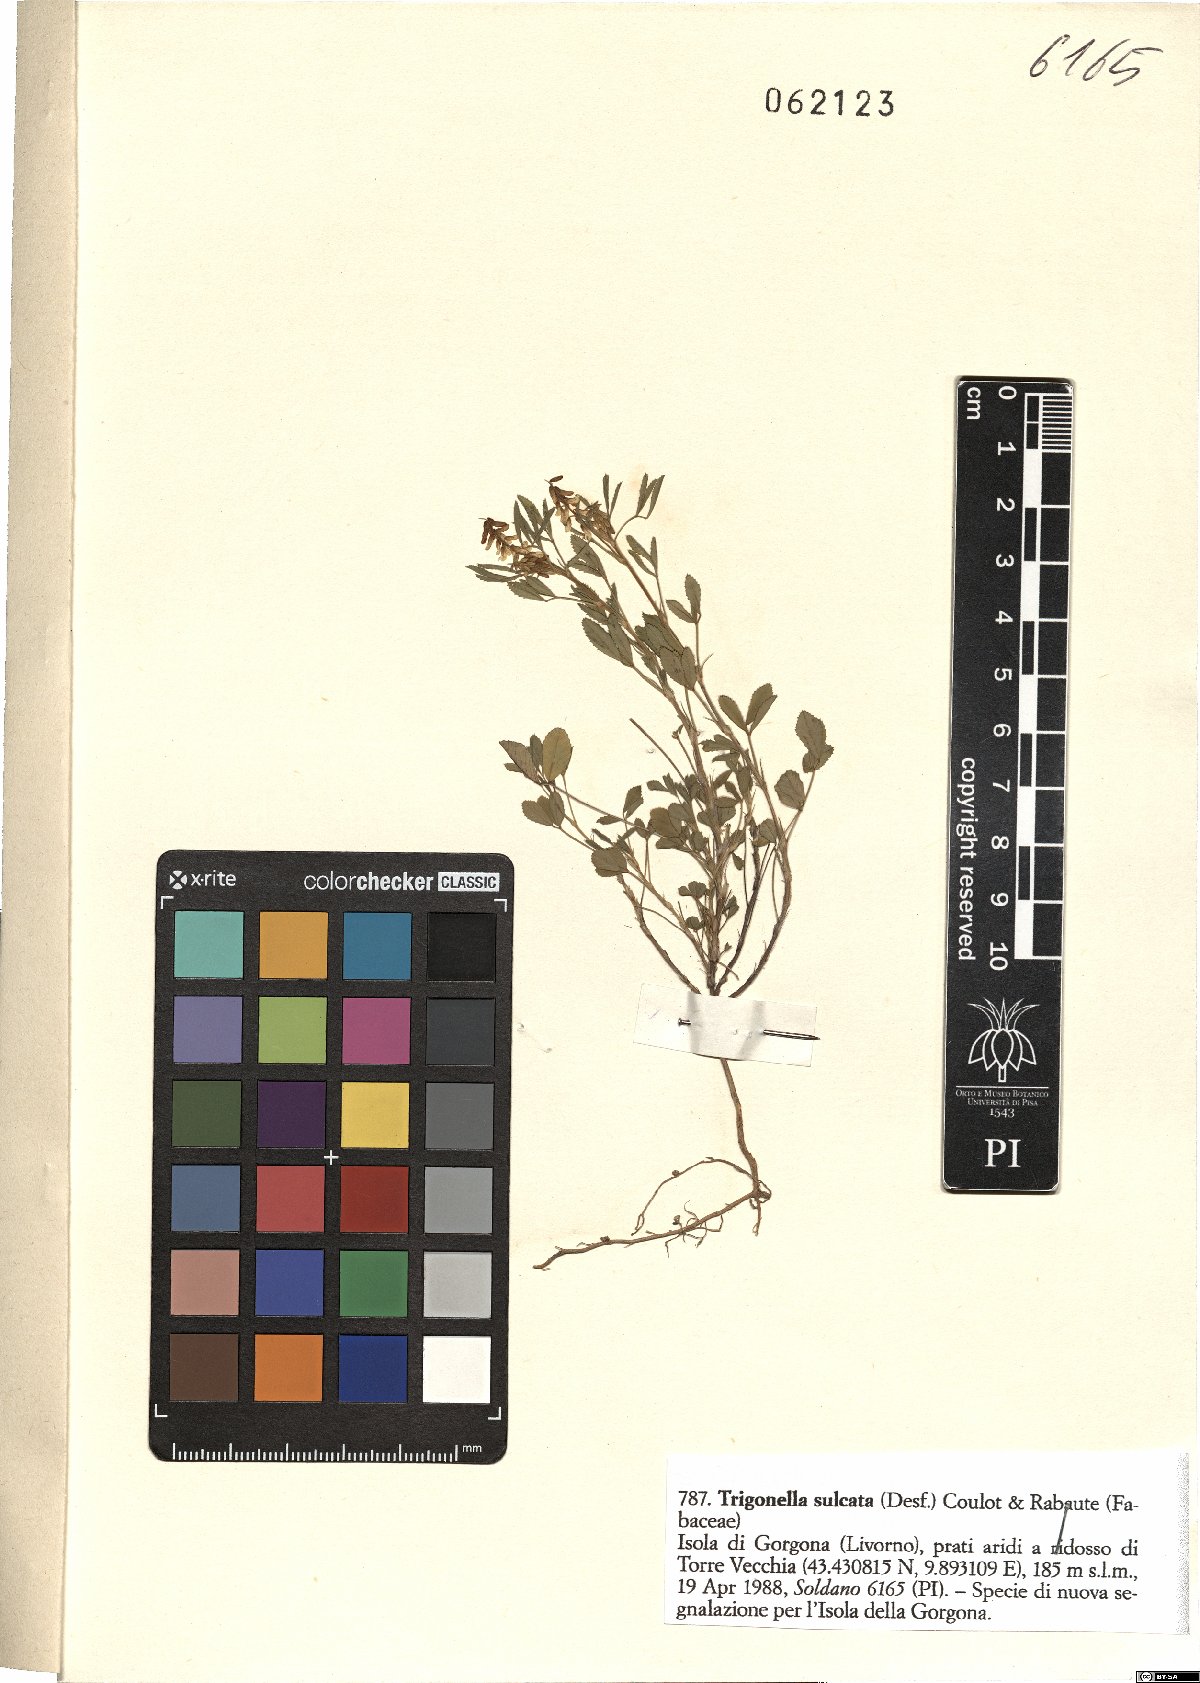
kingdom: Plantae
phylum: Tracheophyta
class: Magnoliopsida
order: Fabales
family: Fabaceae
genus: Melilotus
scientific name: Melilotus sulcatus
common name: Furrowed melilot
